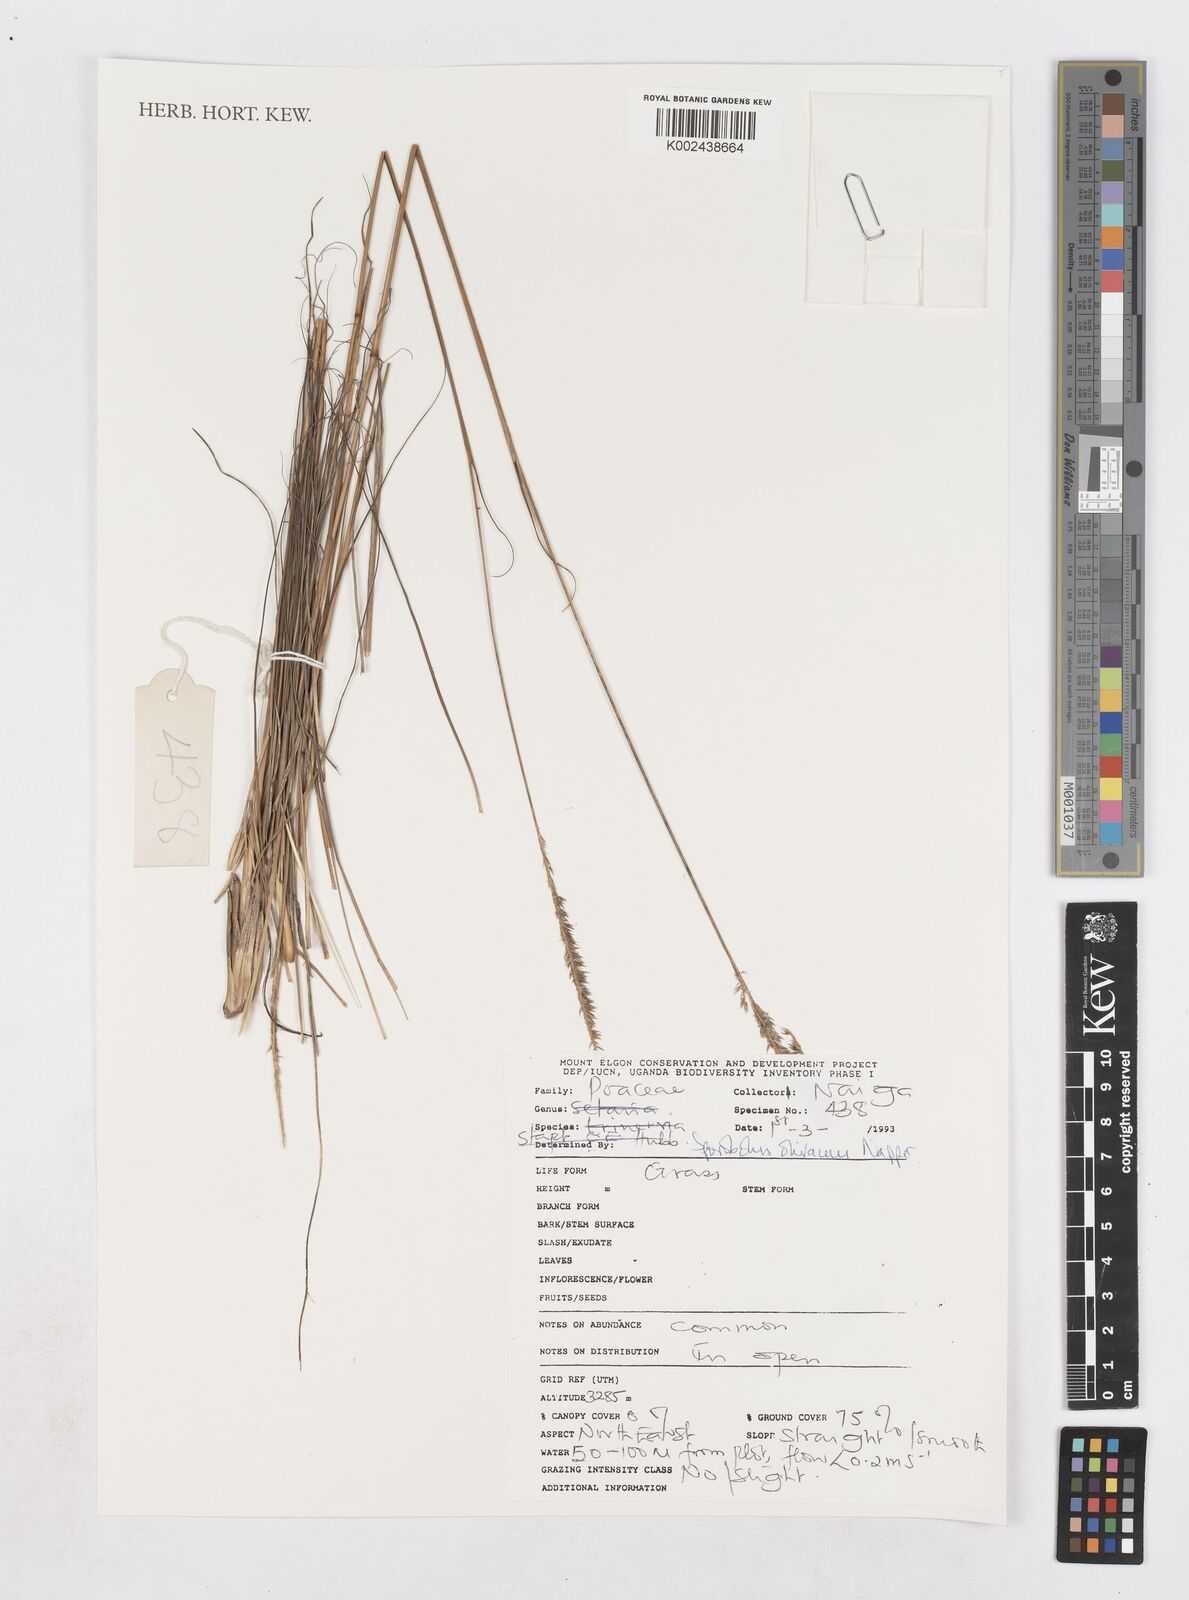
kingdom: Plantae
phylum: Tracheophyta
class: Liliopsida
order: Poales
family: Poaceae
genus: Sporobolus
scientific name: Sporobolus olivaceus
